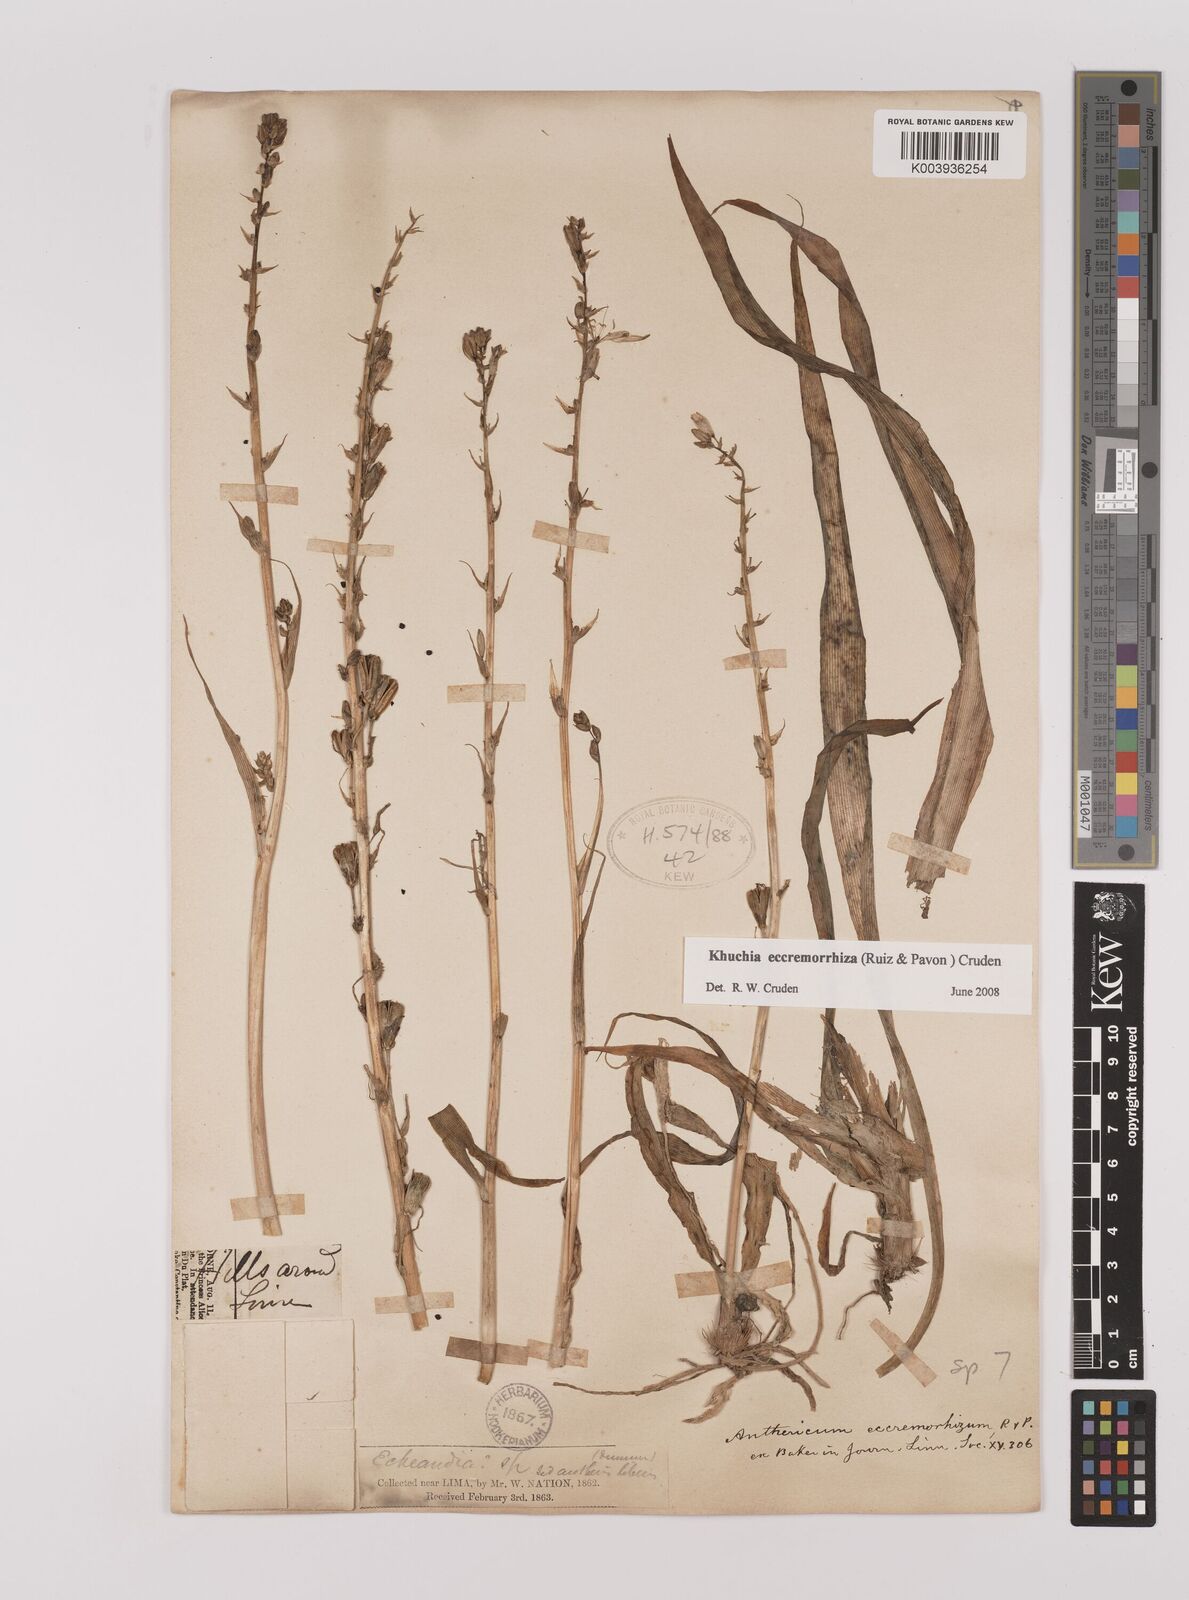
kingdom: Plantae
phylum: Tracheophyta
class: Liliopsida
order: Asparagales
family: Asparagaceae
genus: Echeandia
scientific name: Echeandia
